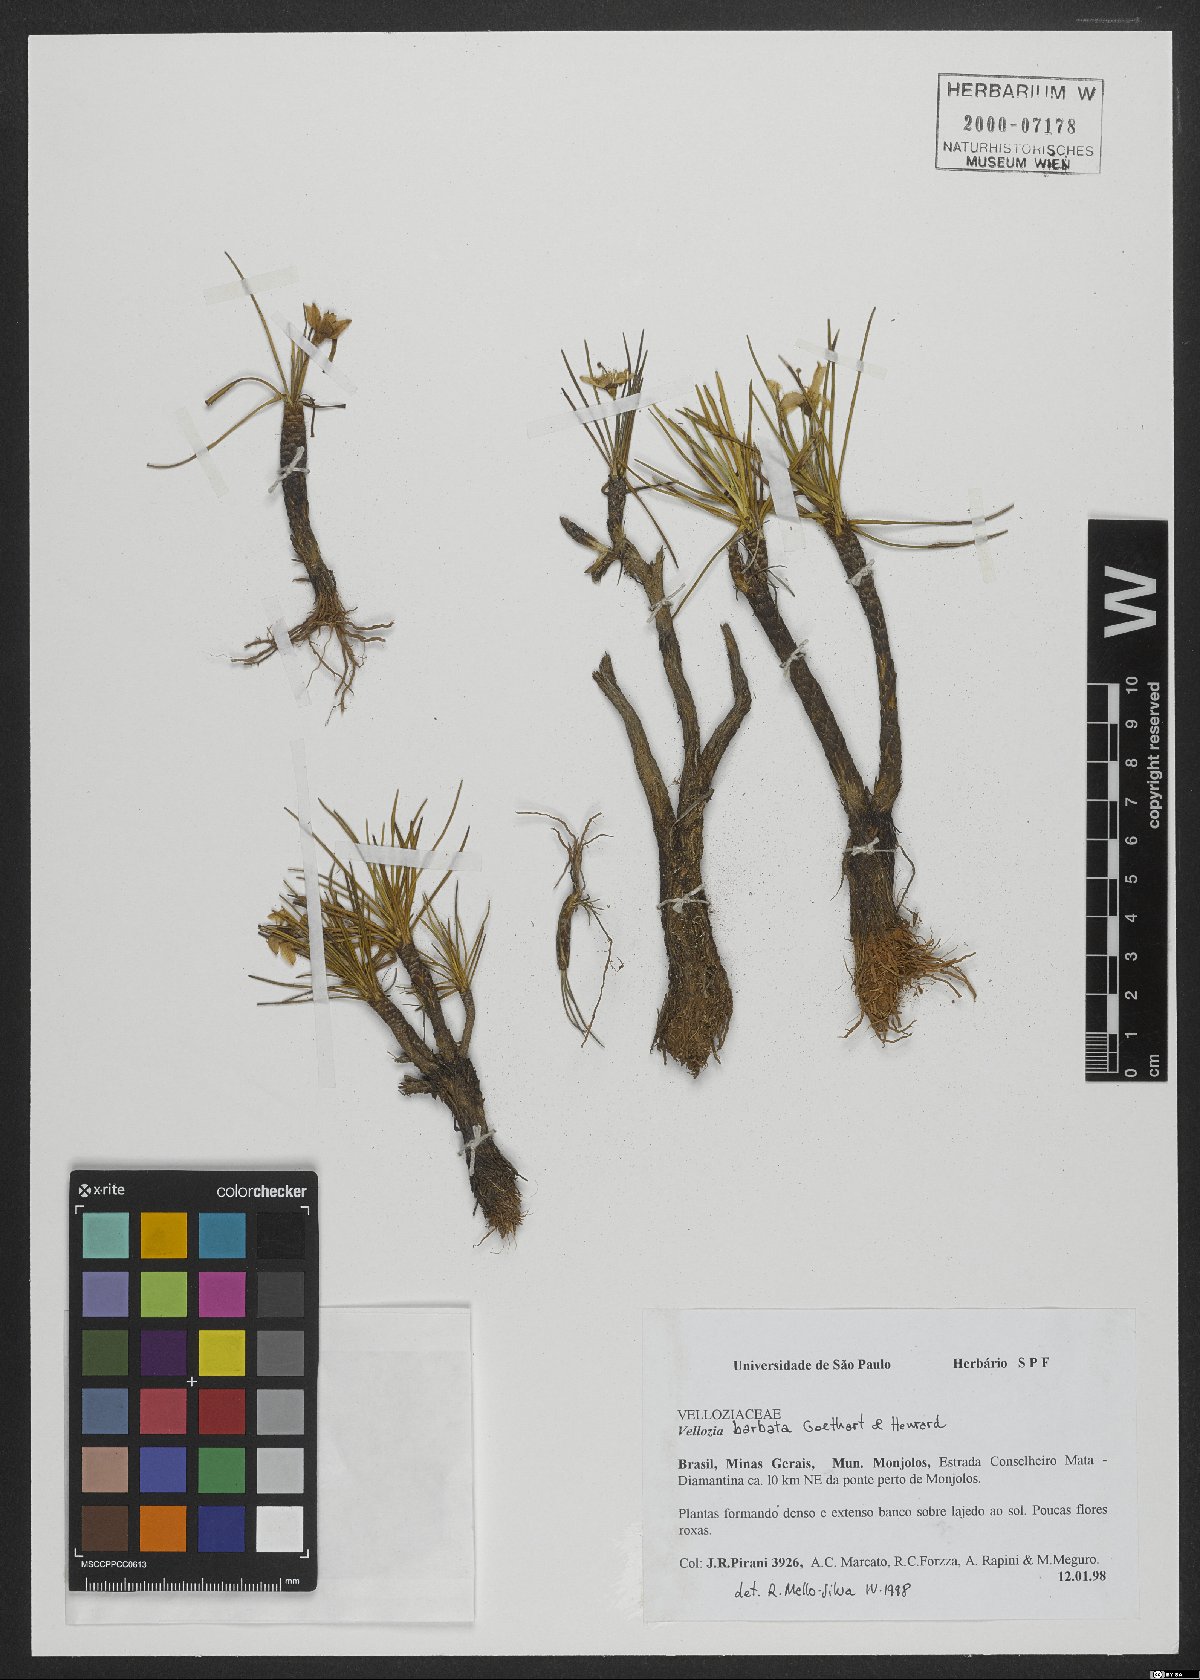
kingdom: Plantae
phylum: Tracheophyta
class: Liliopsida
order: Pandanales
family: Velloziaceae
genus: Vellozia
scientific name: Vellozia barbata
